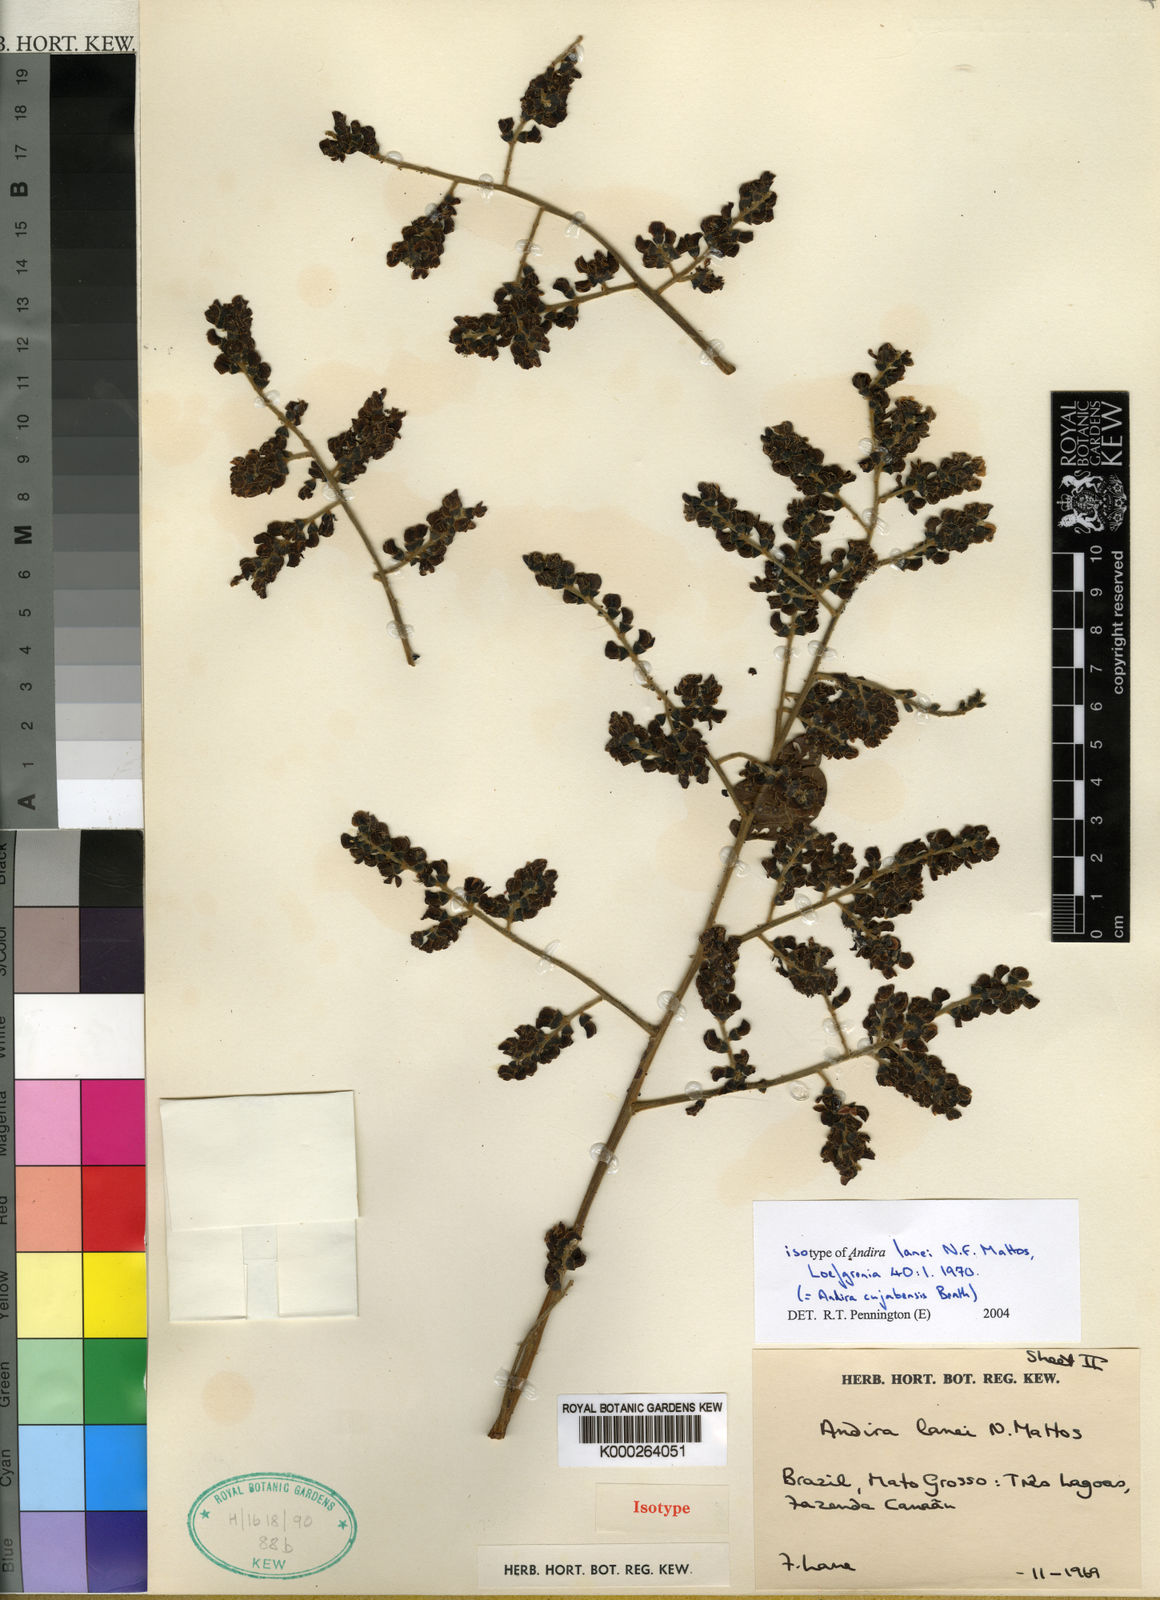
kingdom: Plantae
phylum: Tracheophyta
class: Magnoliopsida
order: Fabales
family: Fabaceae
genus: Andira
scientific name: Andira cujabensis
